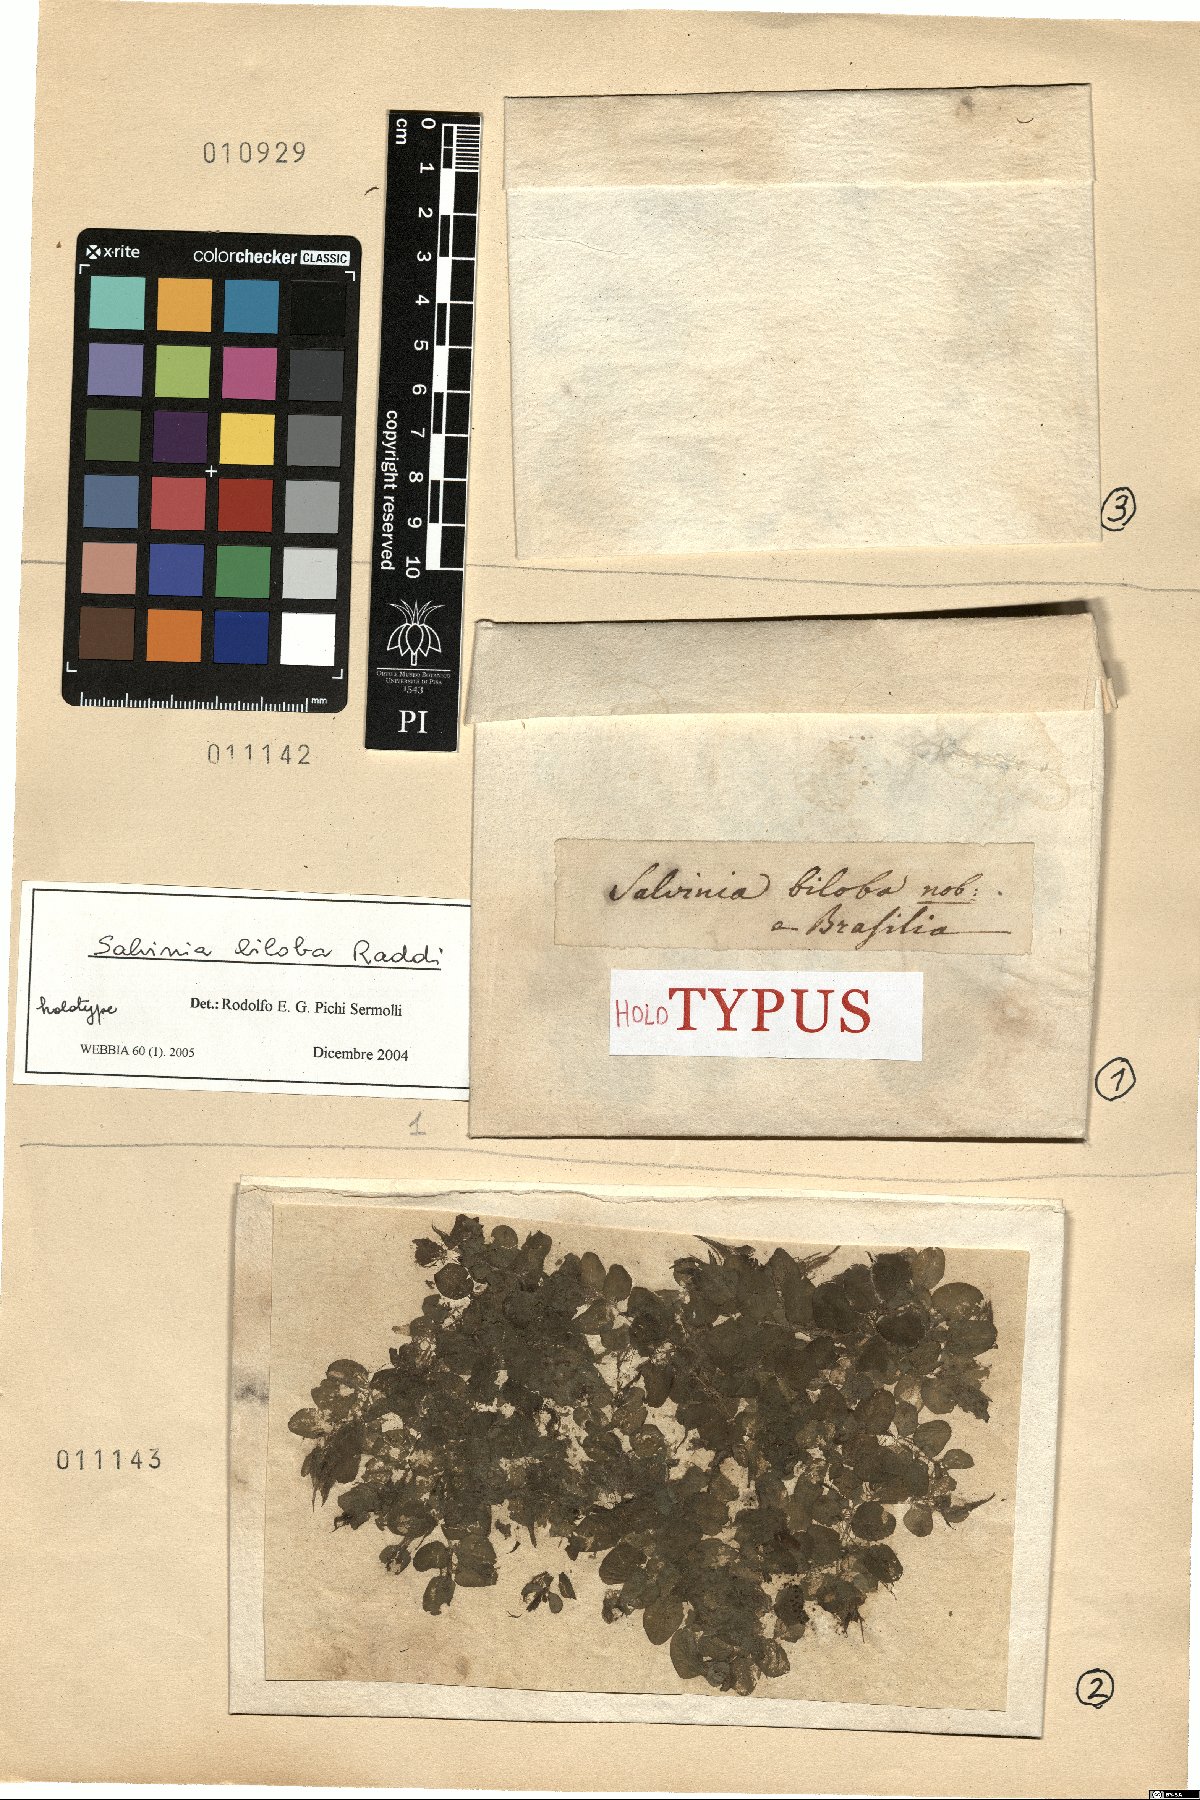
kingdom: Plantae
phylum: Tracheophyta
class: Polypodiopsida
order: Salviniales
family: Salviniaceae
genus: Salvinia
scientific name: Salvinia biloba
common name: Giant salvinia
